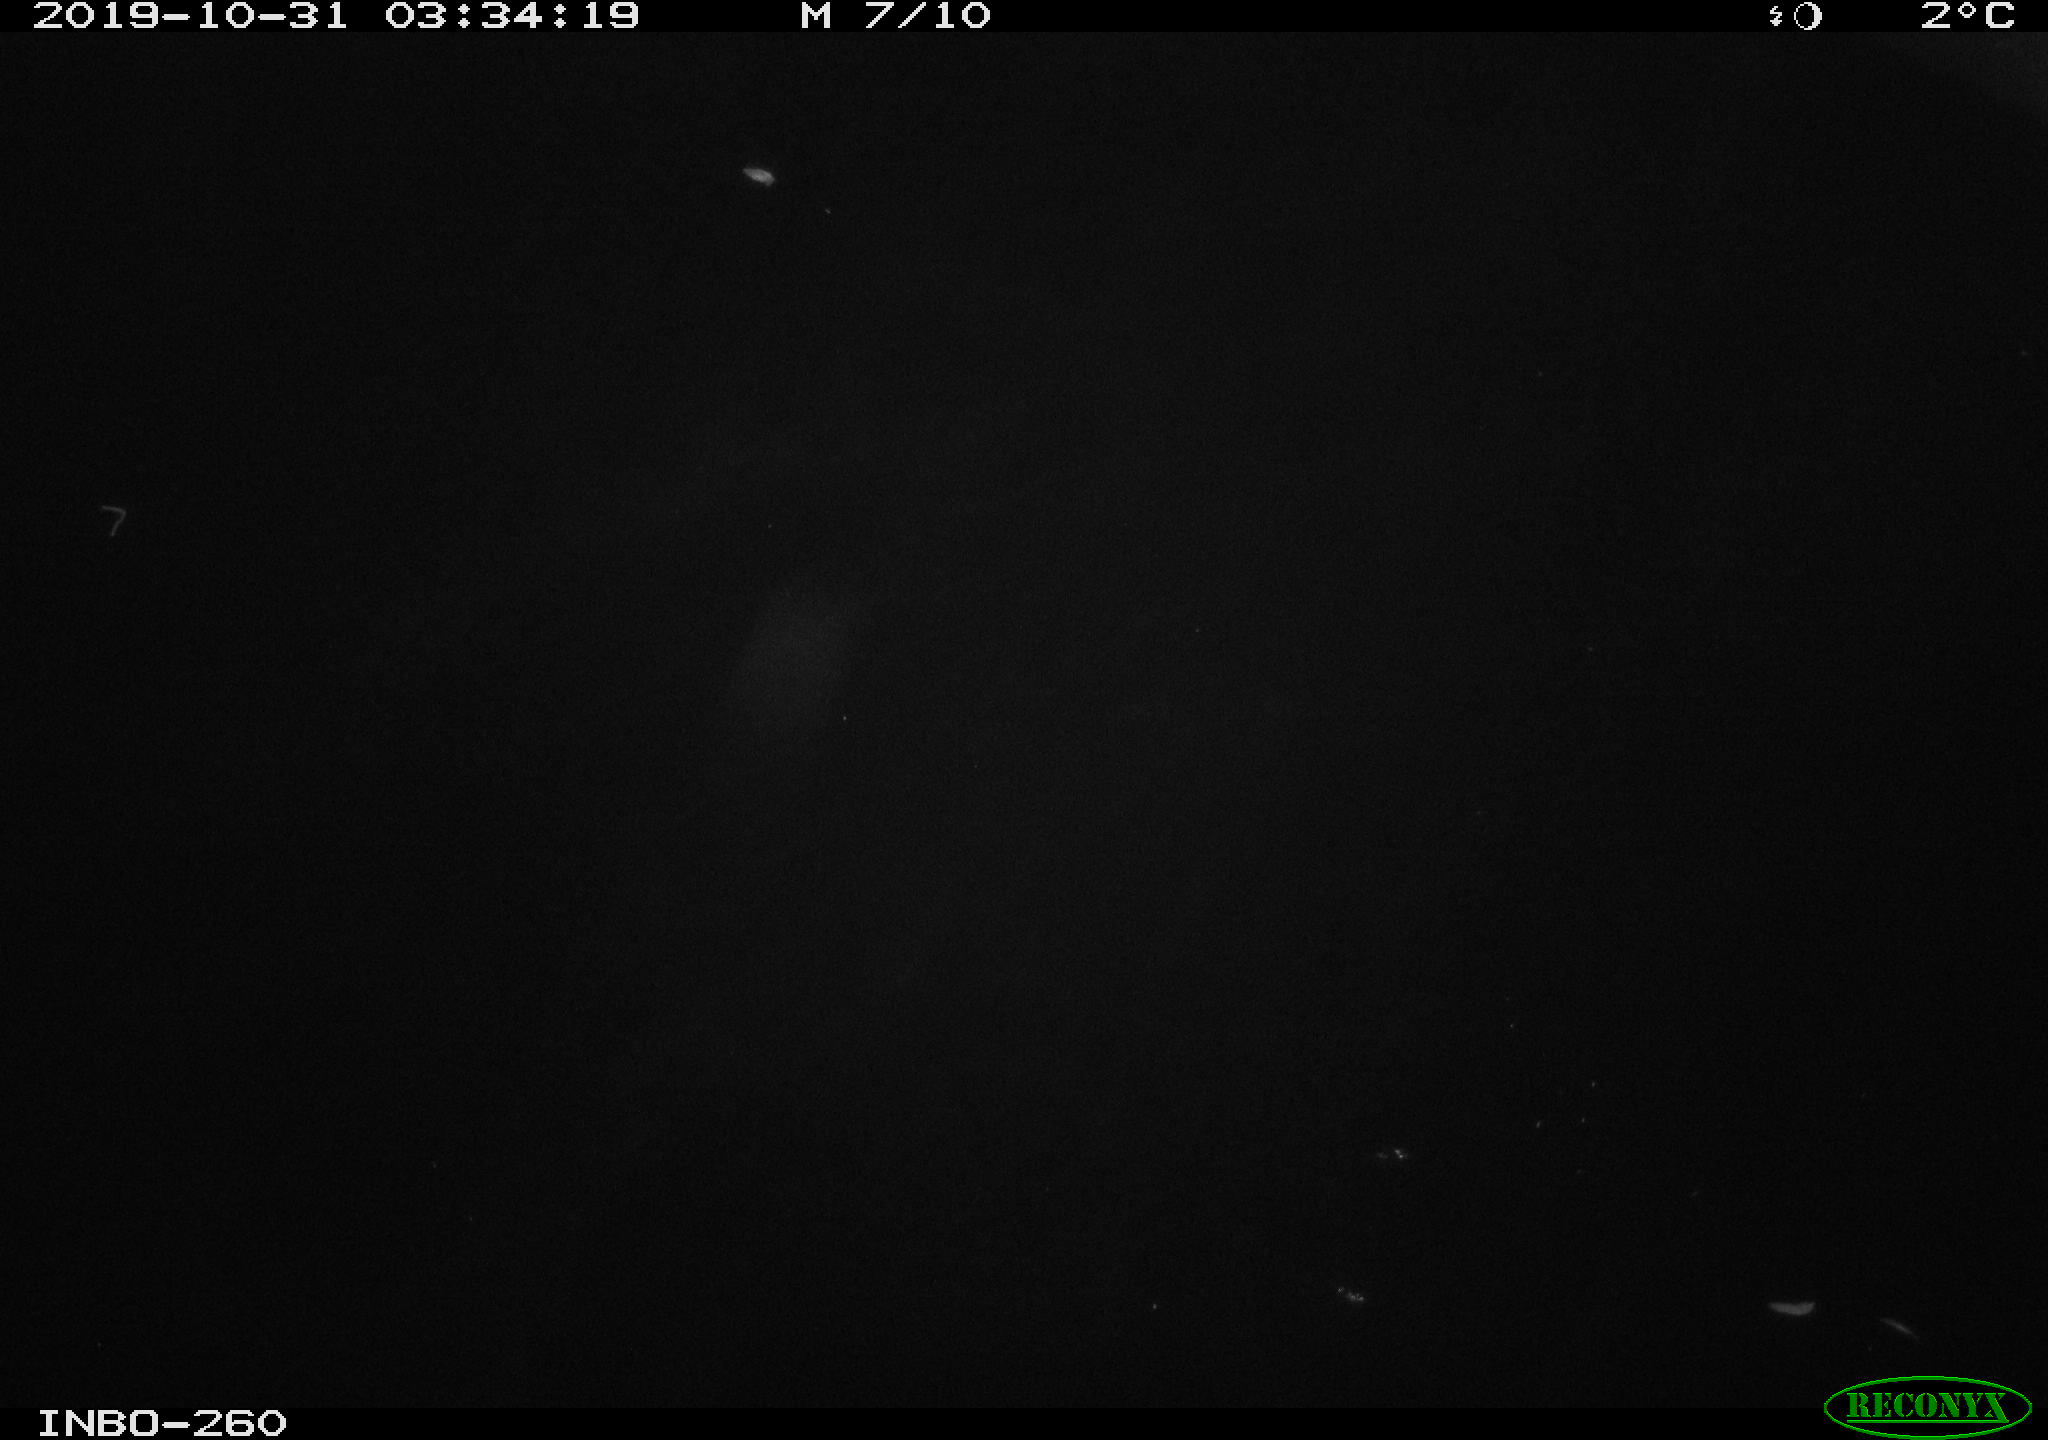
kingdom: Animalia
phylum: Chordata
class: Aves
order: Anseriformes
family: Anatidae
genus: Anas
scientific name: Anas platyrhynchos
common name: Mallard
